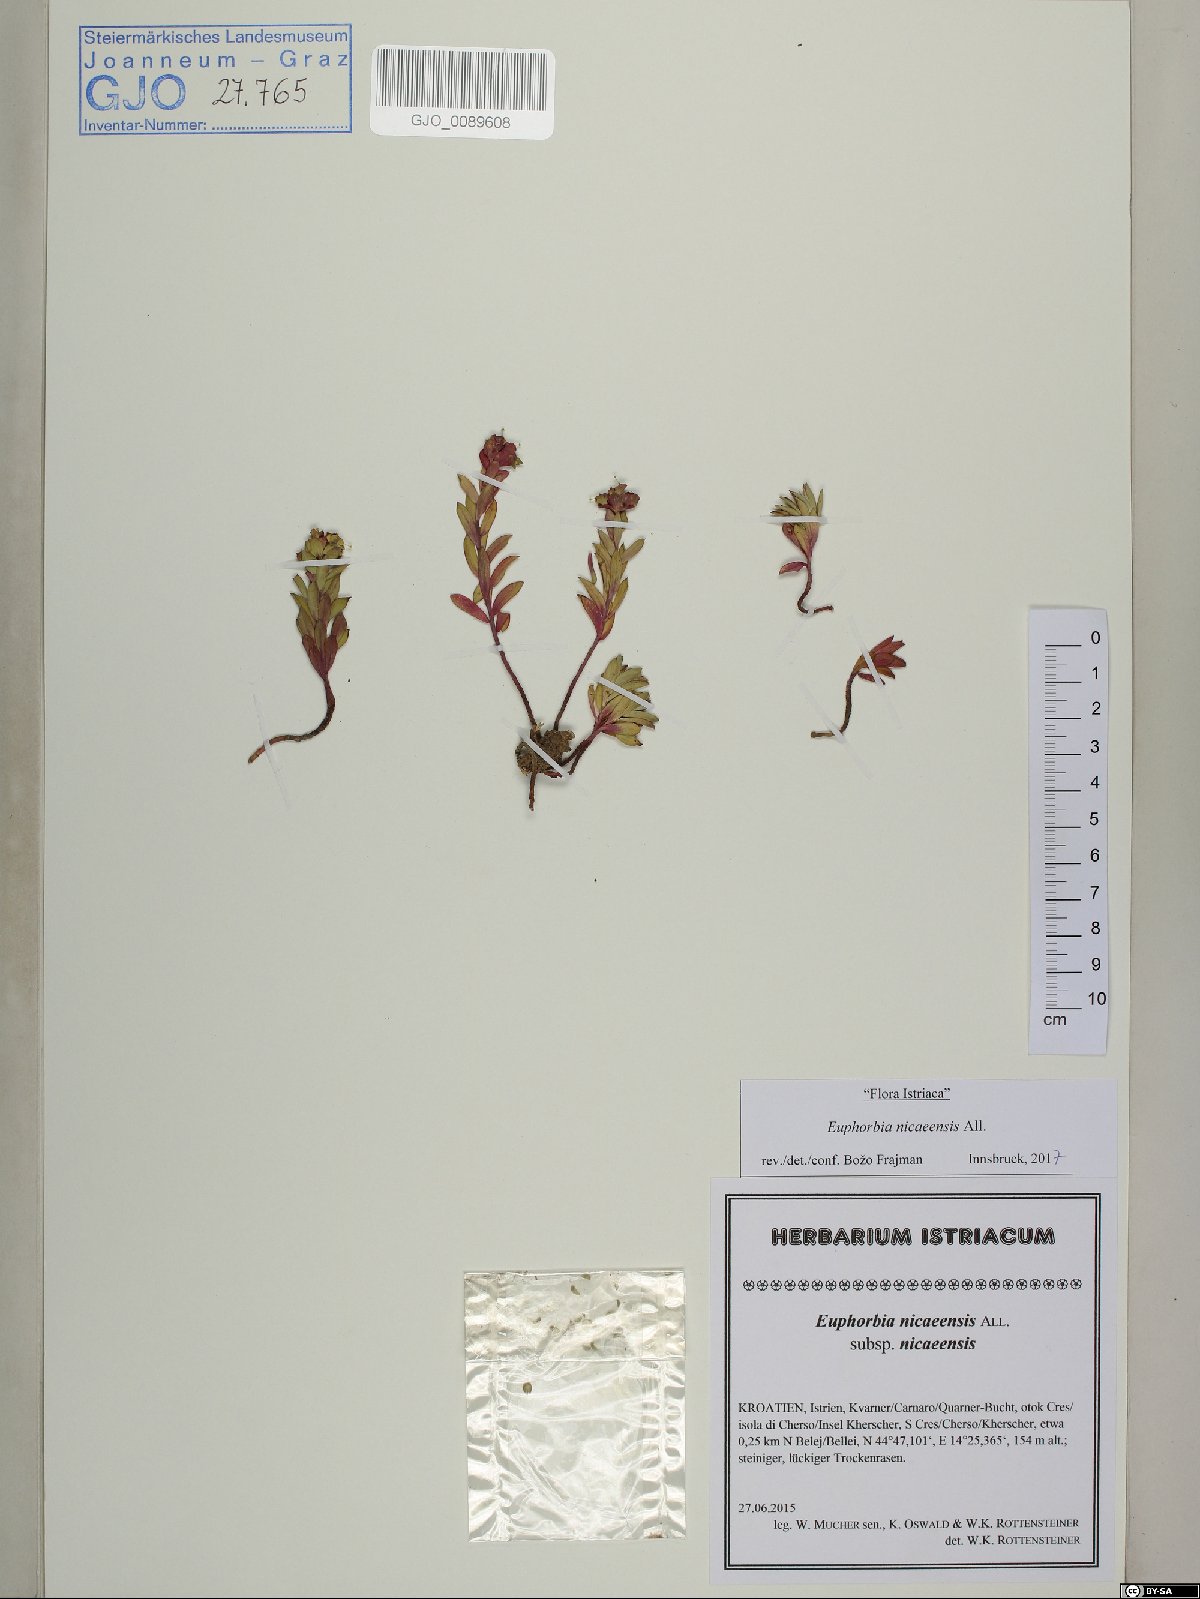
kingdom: Plantae
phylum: Tracheophyta
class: Magnoliopsida
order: Malpighiales
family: Euphorbiaceae
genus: Euphorbia
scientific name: Euphorbia nicaeensis
